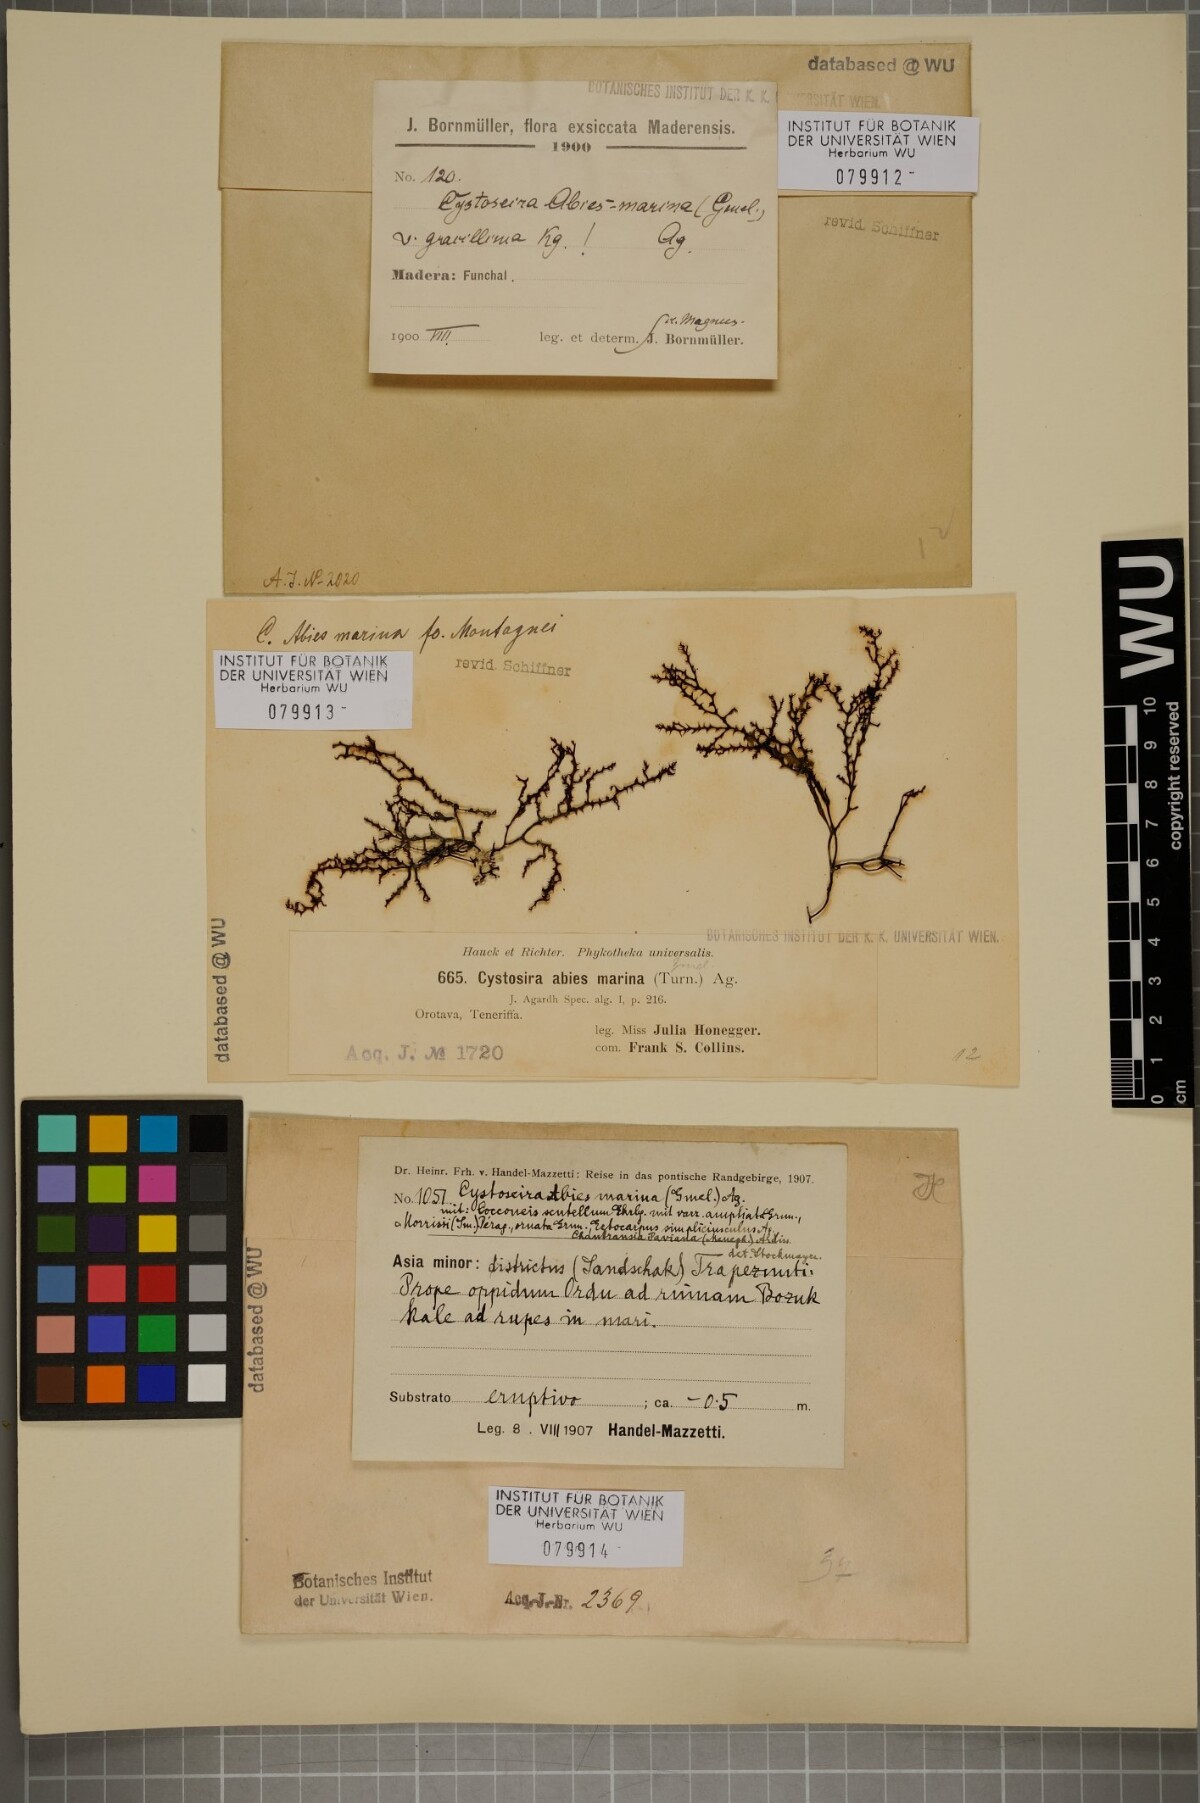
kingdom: Chromista
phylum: Ochrophyta
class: Phaeophyceae
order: Fucales
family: Sargassaceae
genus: Cystoseira
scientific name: Cystoseira Gongolaria abies-marina
